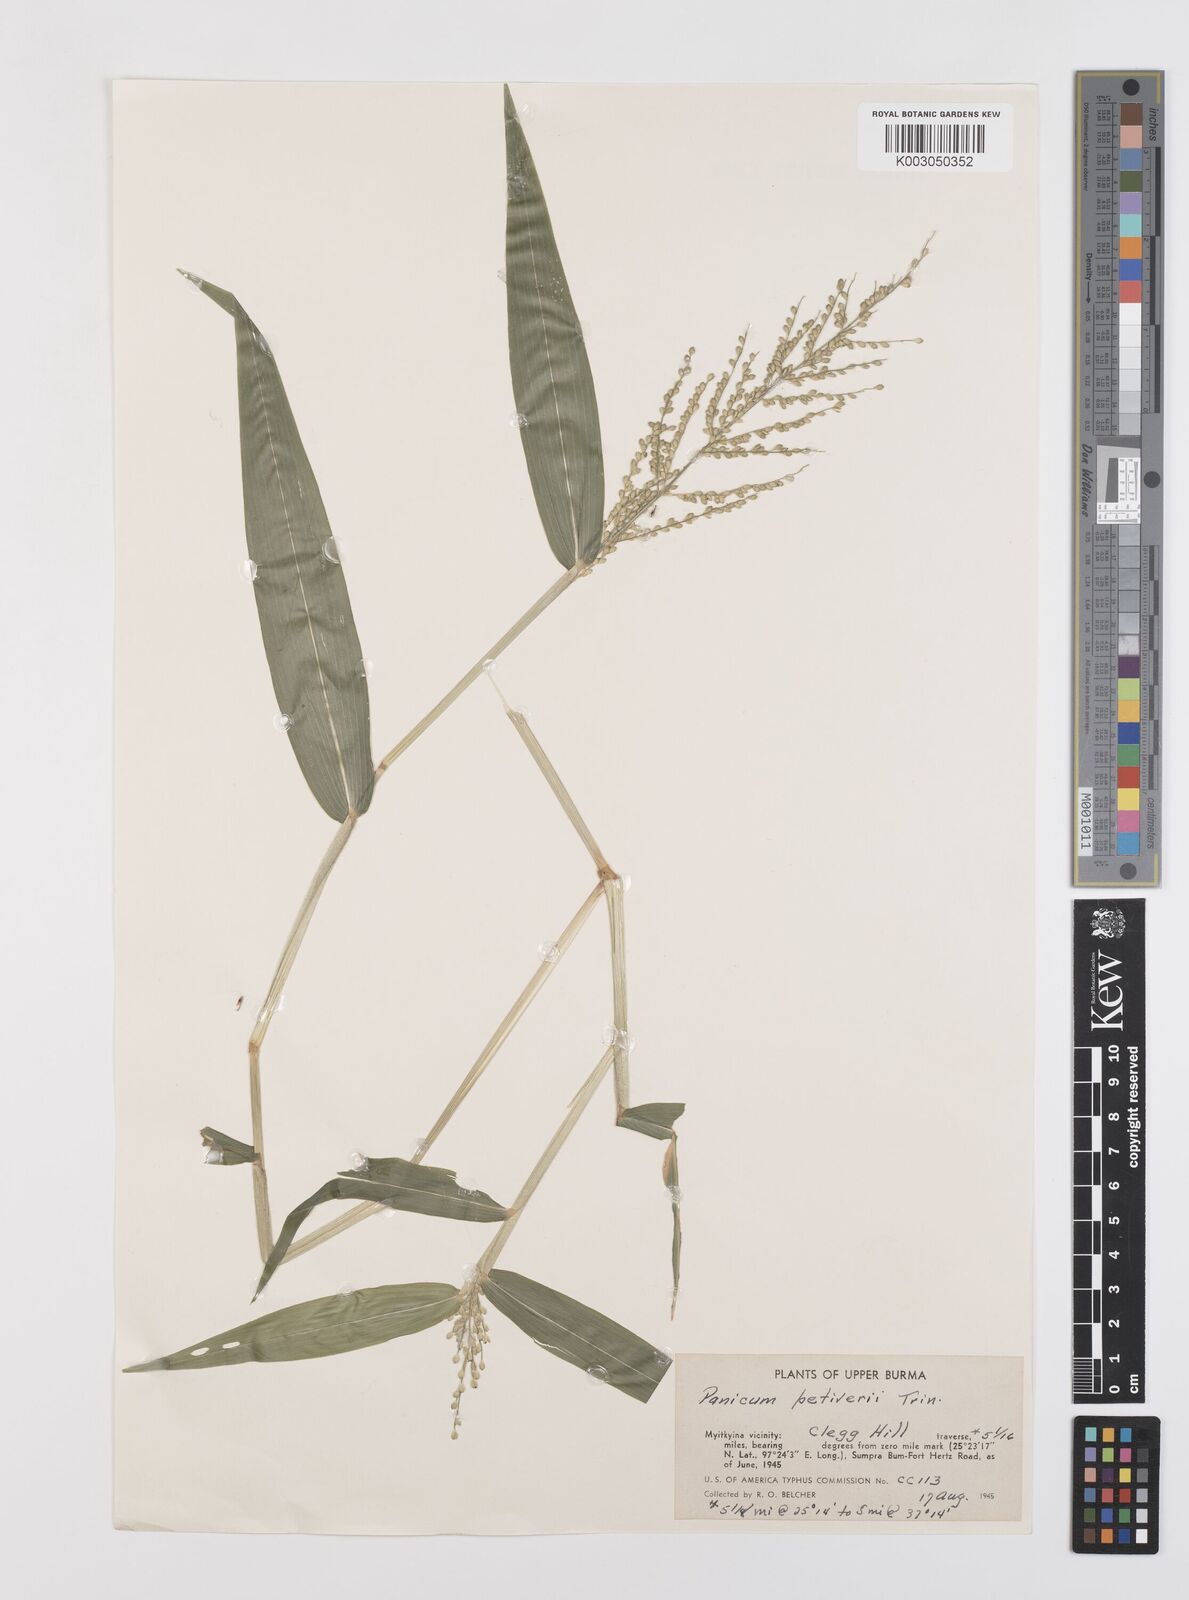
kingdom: Plantae
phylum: Tracheophyta
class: Liliopsida
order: Poales
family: Poaceae
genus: Urochloa
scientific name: Urochloa ramosa
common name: Browntop millet
